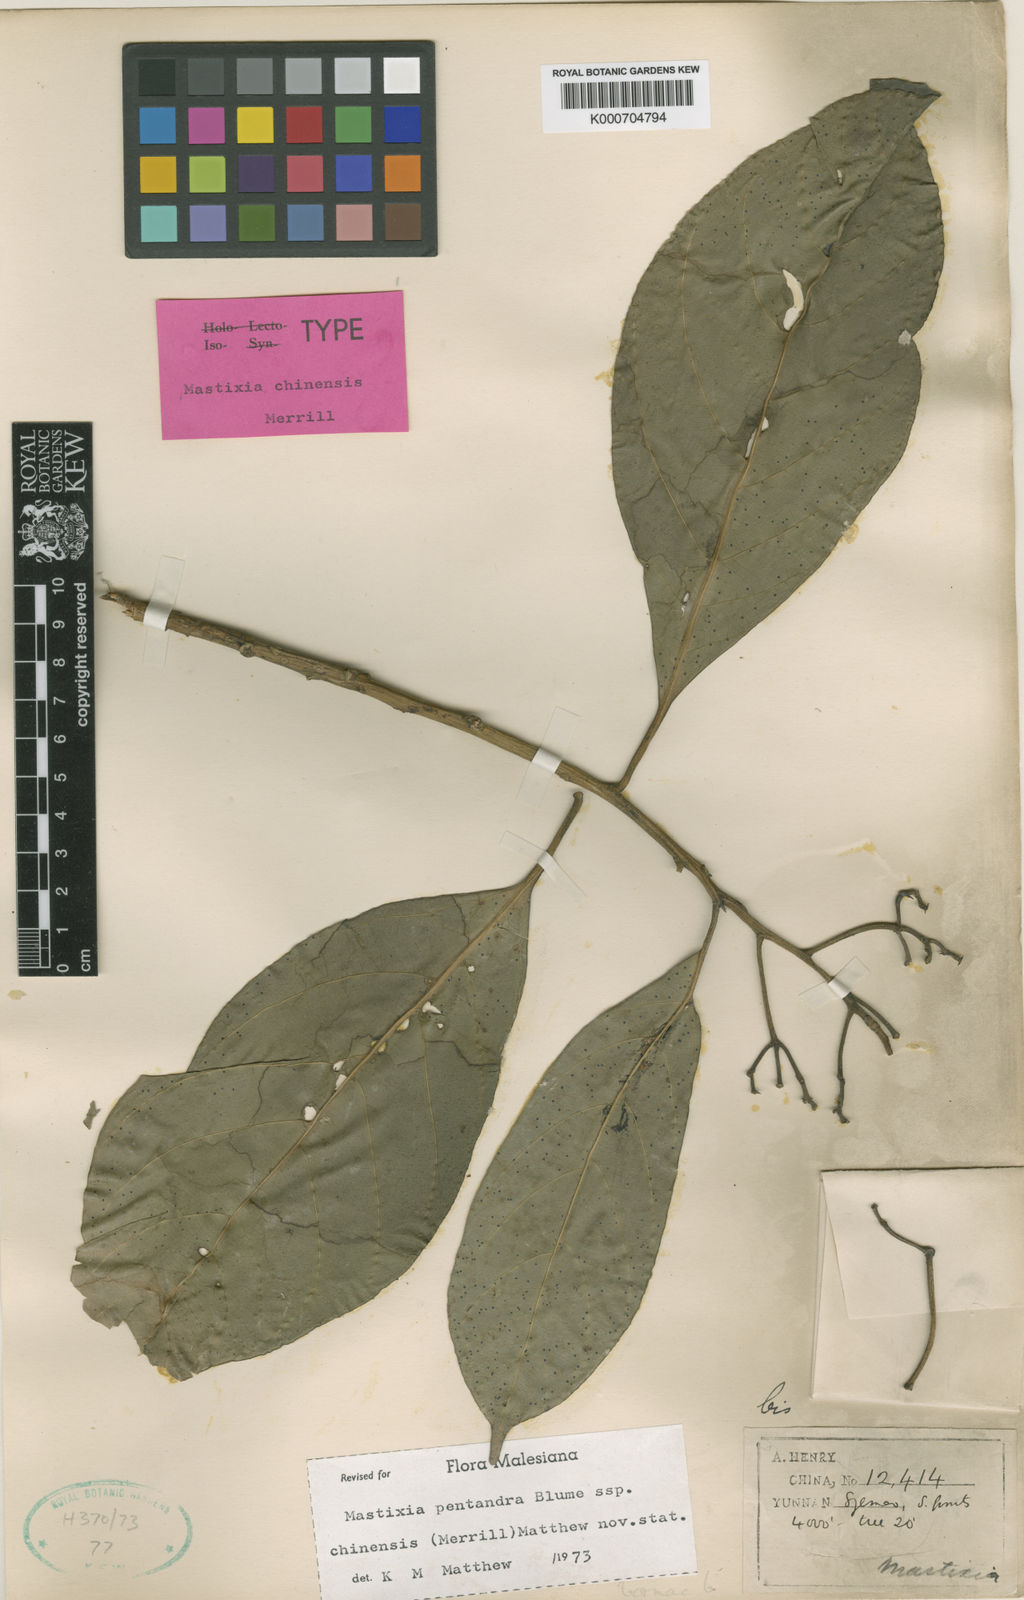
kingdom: Plantae
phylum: Tracheophyta
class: Magnoliopsida
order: Cornales
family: Nyssaceae
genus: Mastixia
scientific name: Mastixia pentandra
